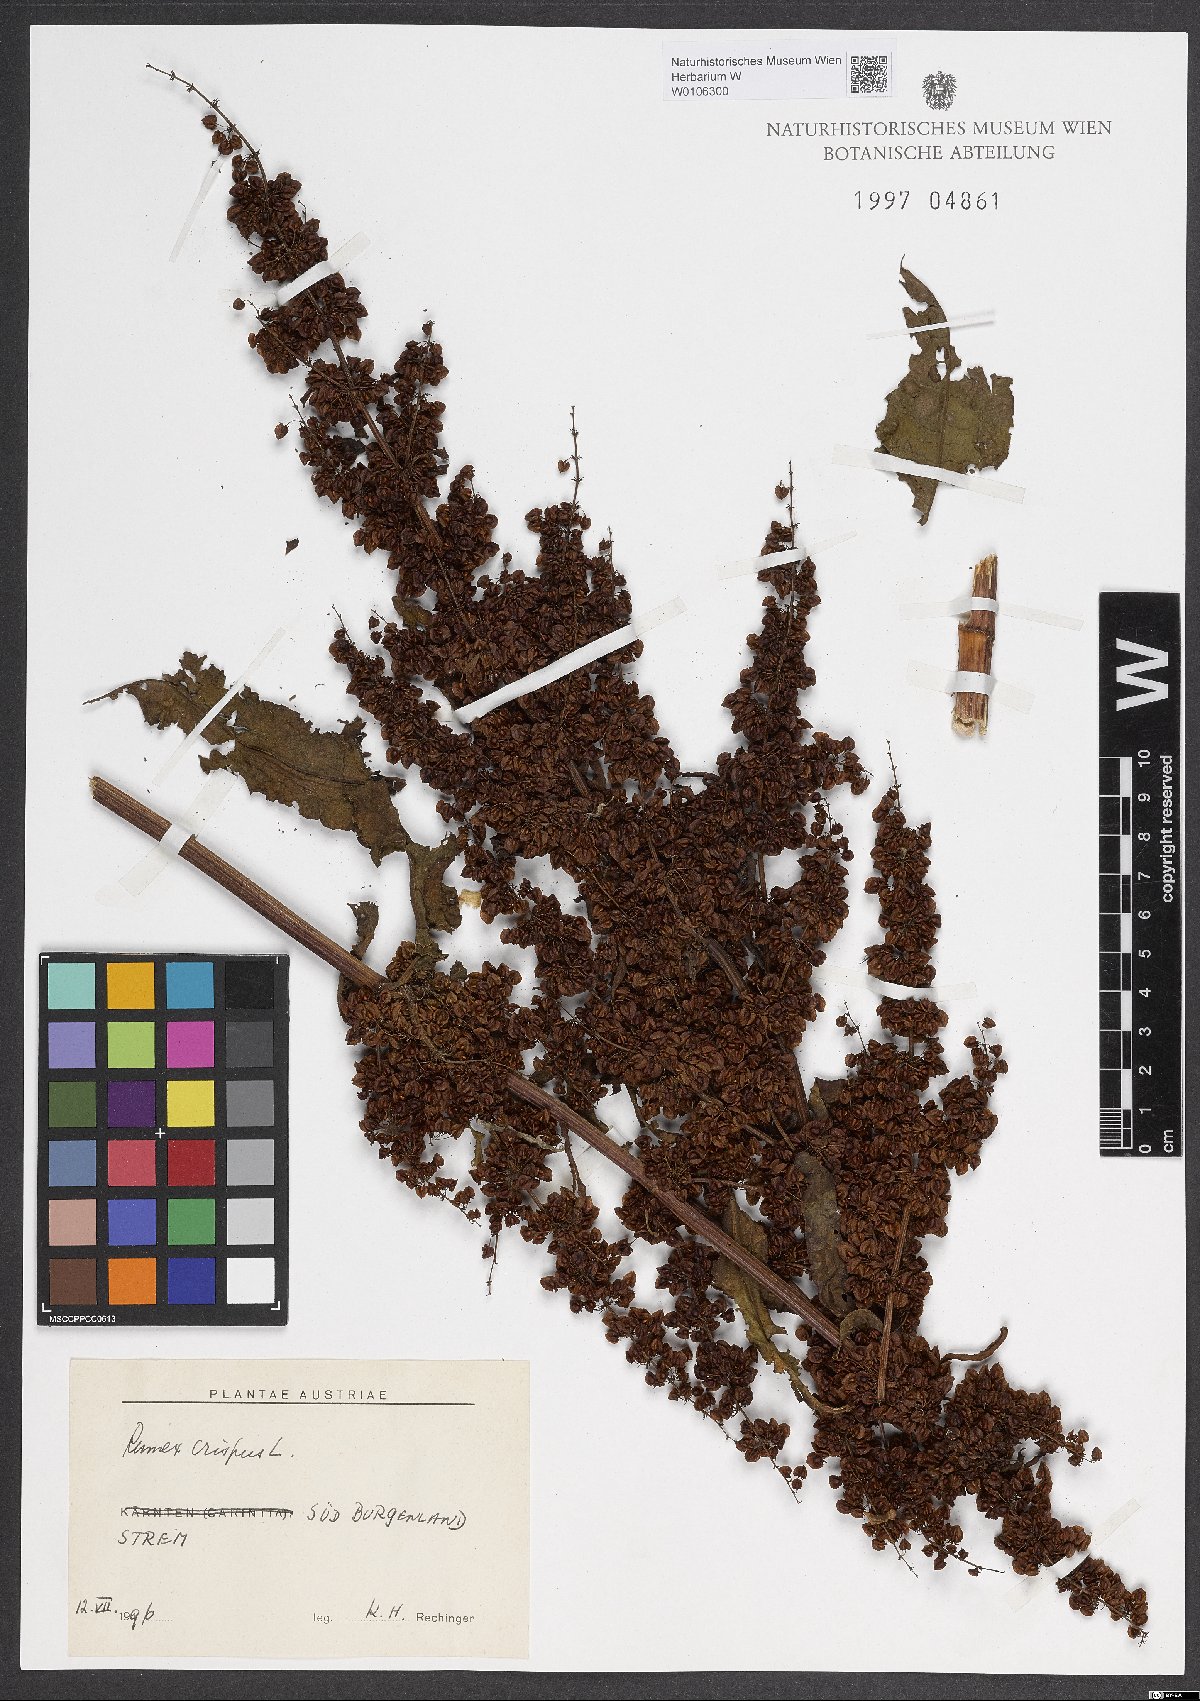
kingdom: Plantae
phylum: Tracheophyta
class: Magnoliopsida
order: Caryophyllales
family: Polygonaceae
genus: Rumex
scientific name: Rumex crispus
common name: Curled dock
